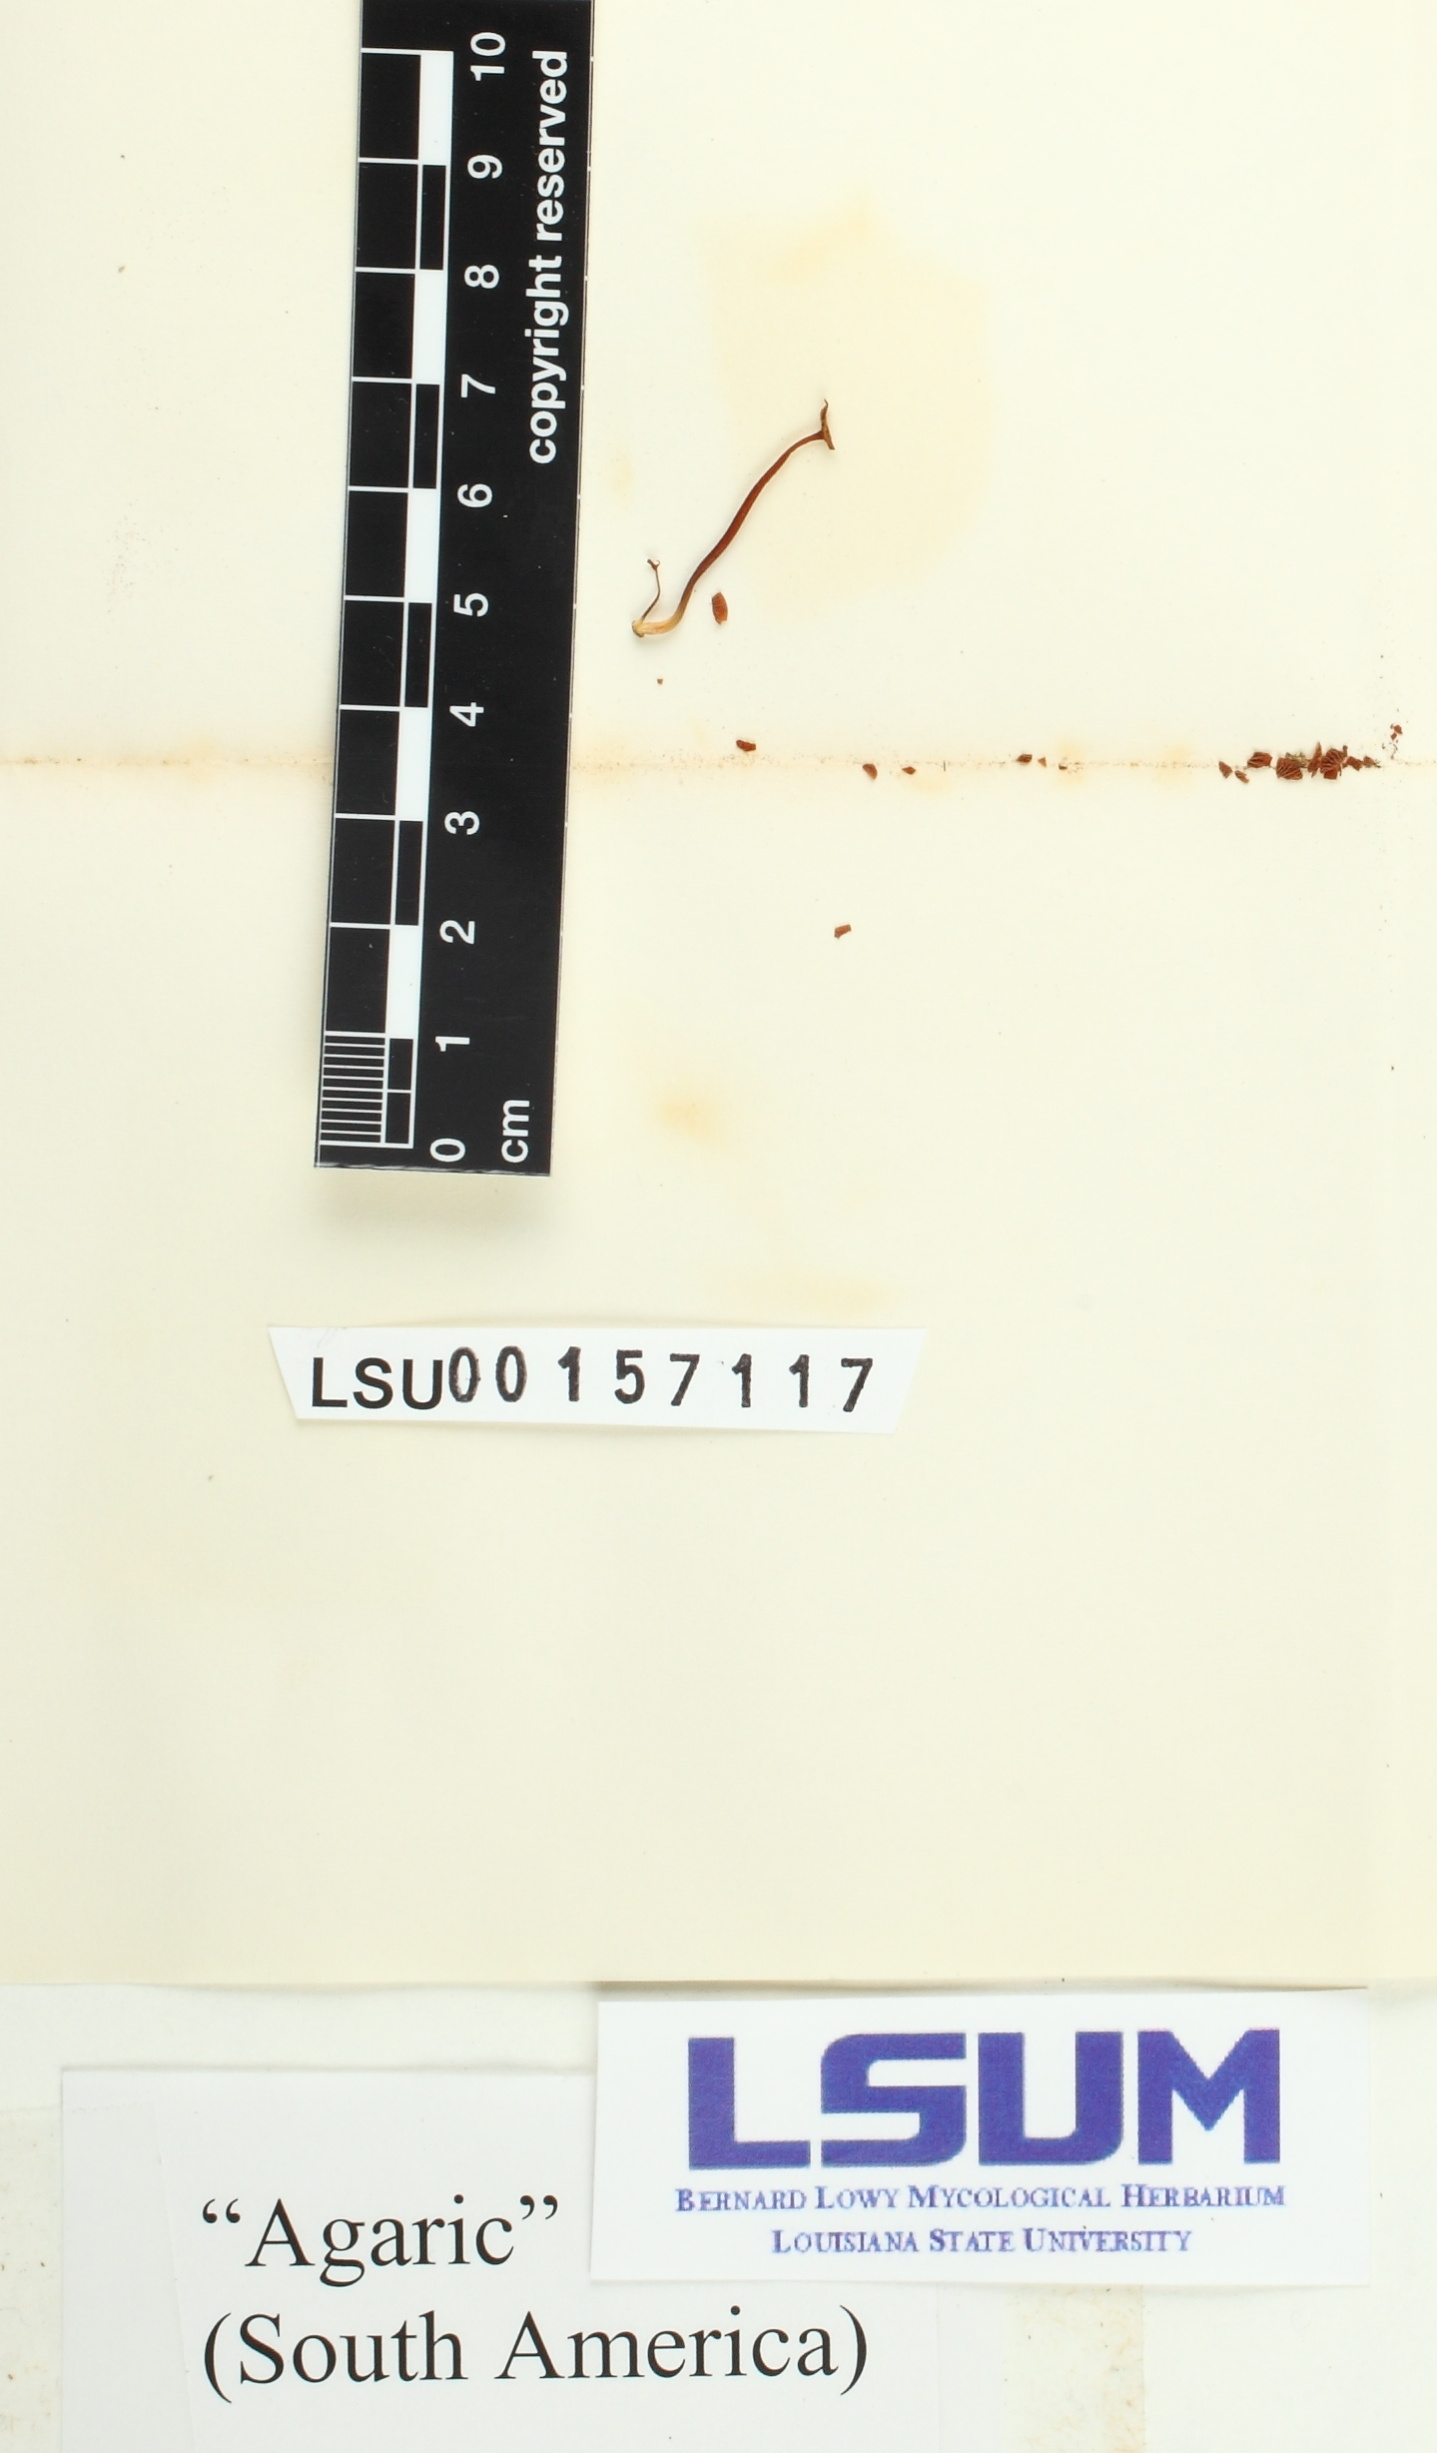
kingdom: Fungi
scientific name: Fungi
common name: Fungi
